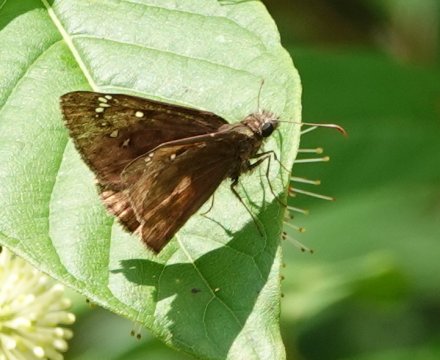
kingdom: Animalia
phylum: Arthropoda
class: Insecta
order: Lepidoptera
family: Hesperiidae
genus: Gesta
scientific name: Gesta
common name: Horace's Duskywing
